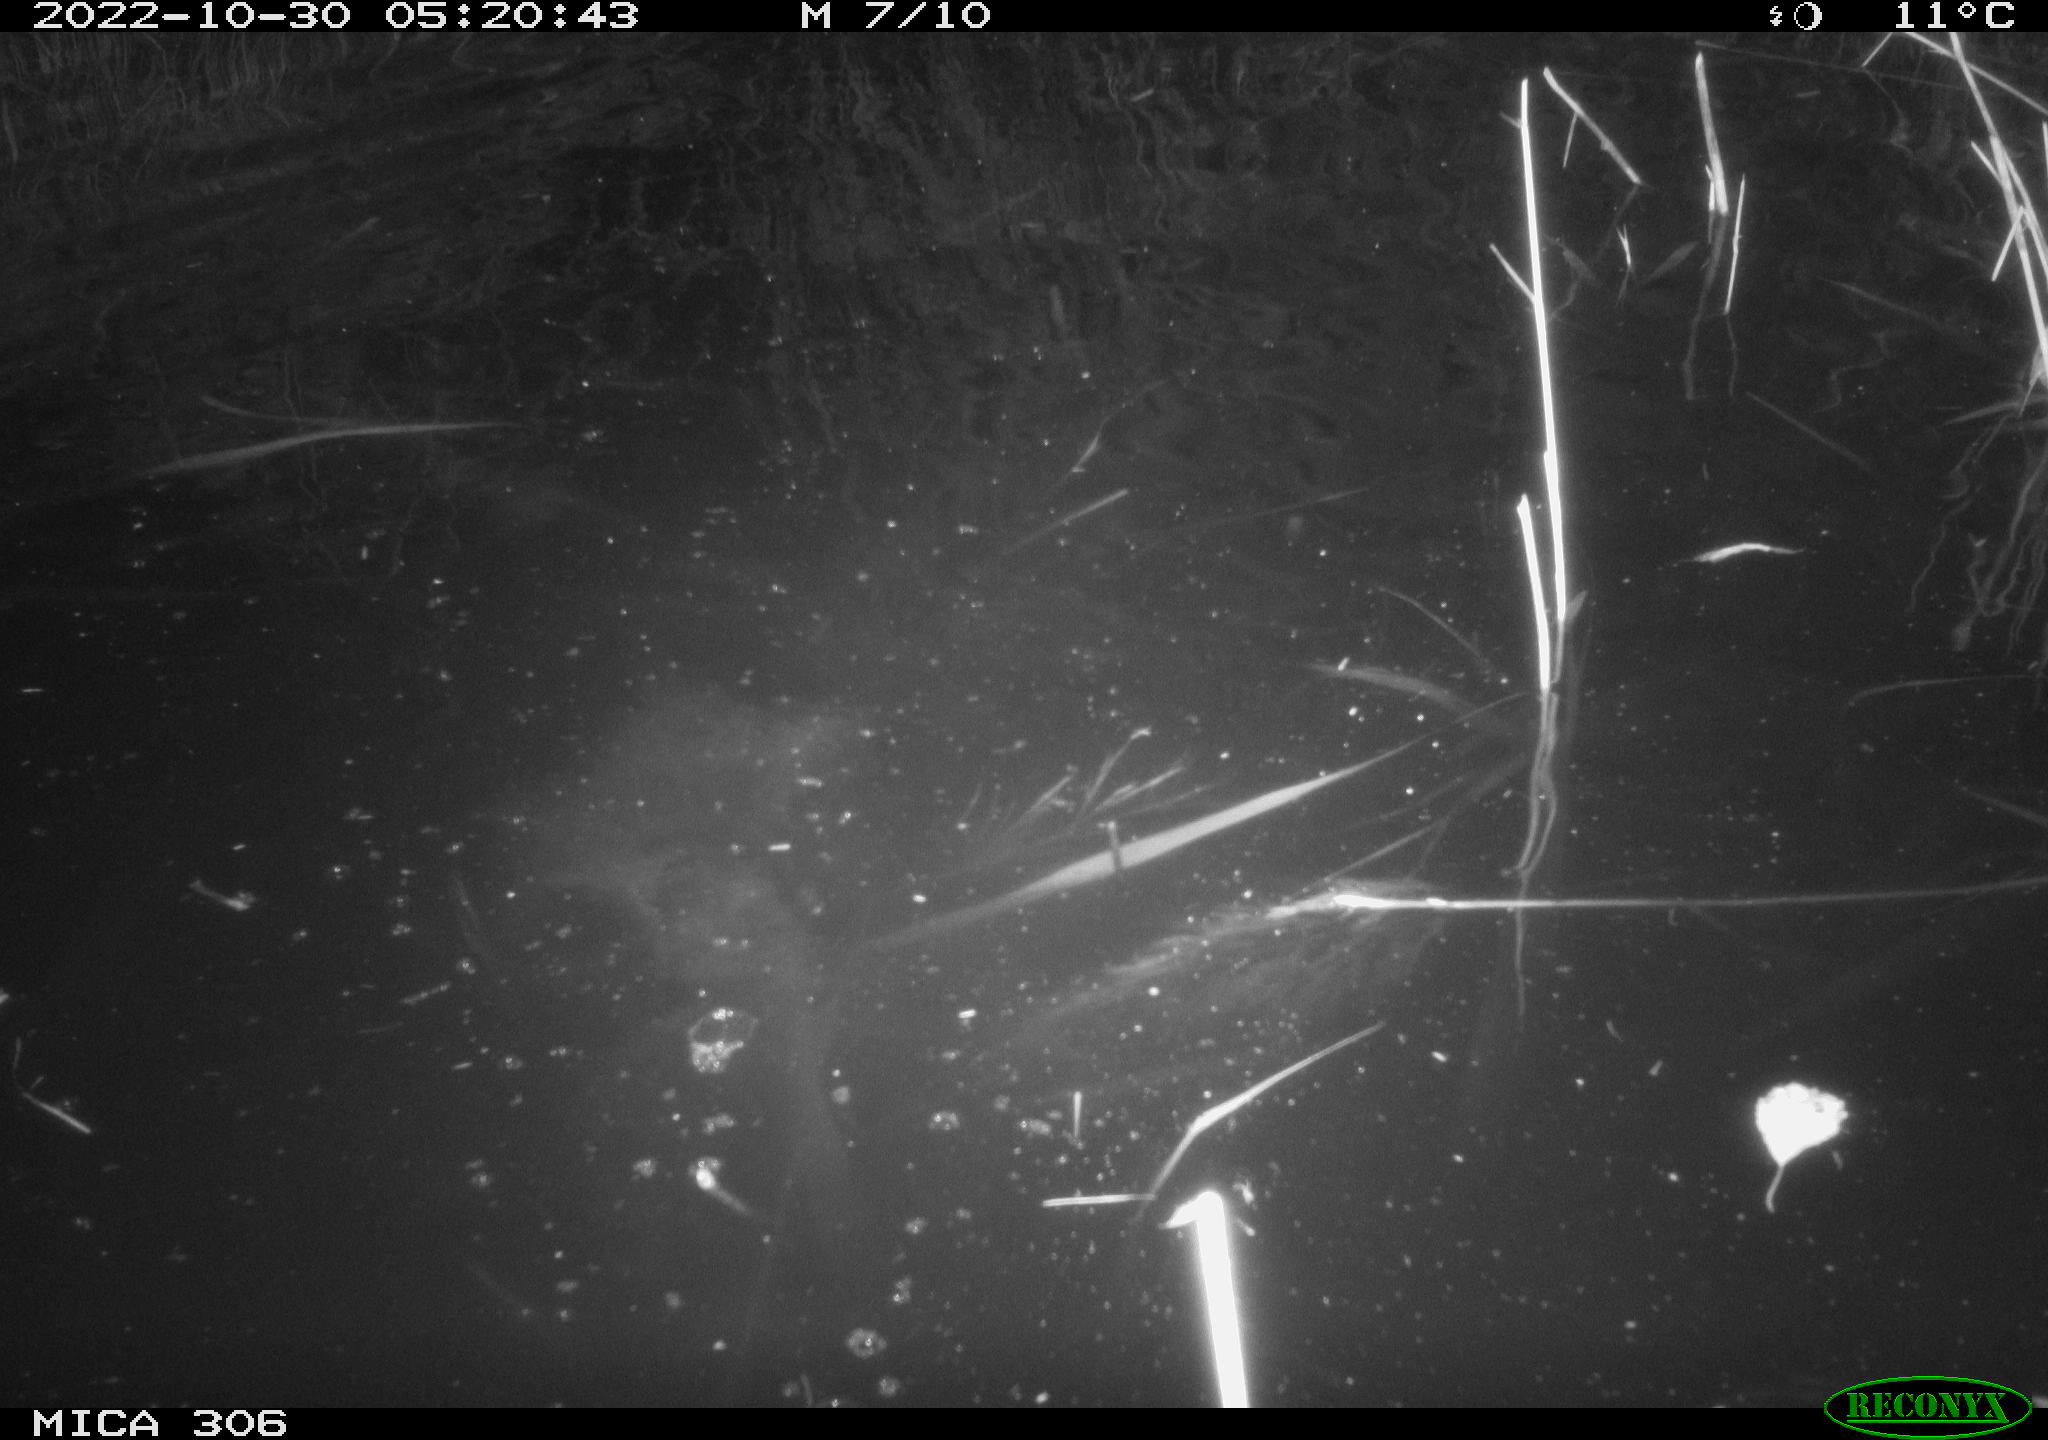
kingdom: Animalia
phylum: Chordata
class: Mammalia
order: Rodentia
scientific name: Rodentia
